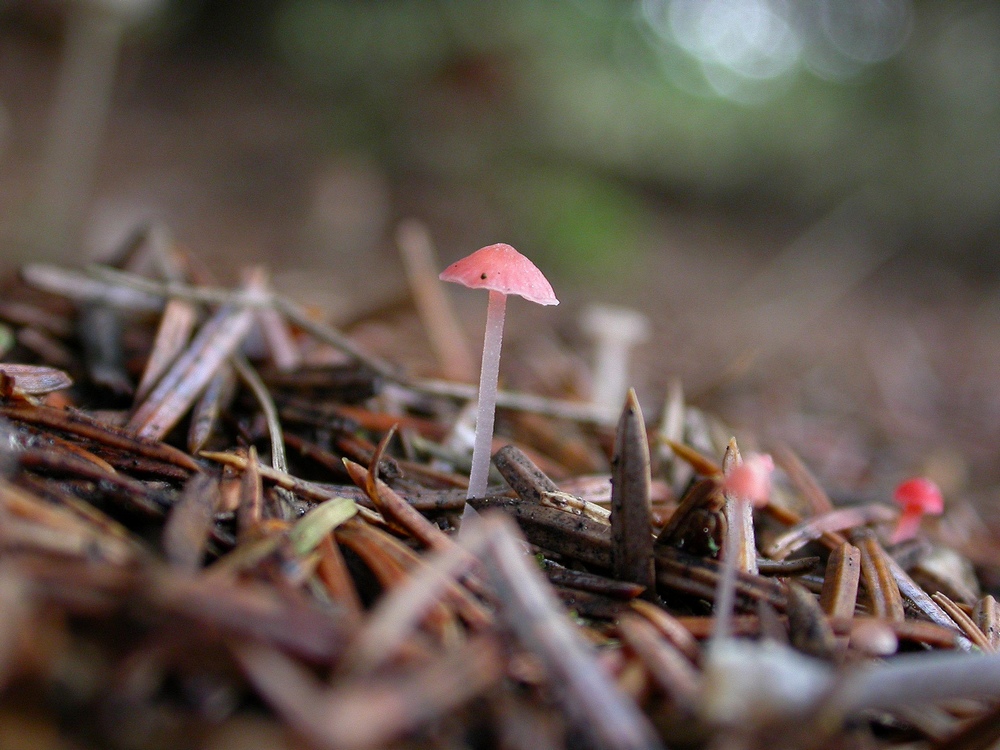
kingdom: Fungi
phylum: Basidiomycota
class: Agaricomycetes
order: Agaricales
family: Mycenaceae
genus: Atheniella
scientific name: Atheniella adonis
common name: rønnerød huesvamp
